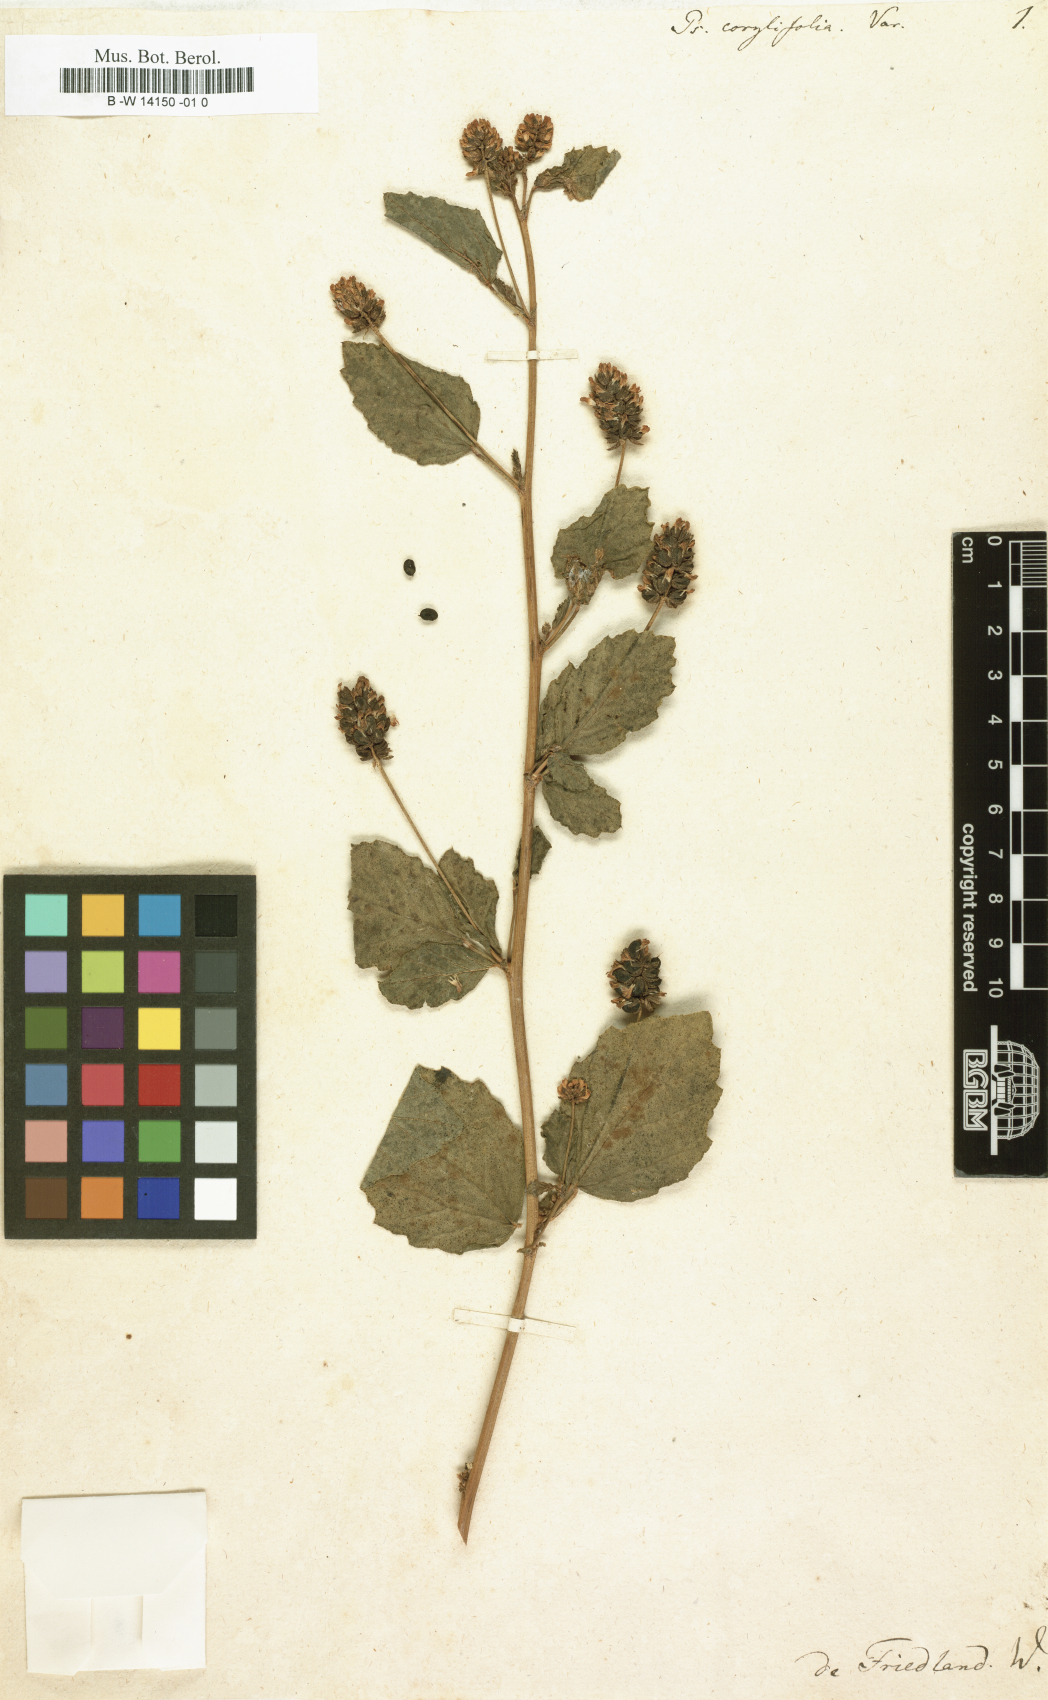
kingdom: Plantae
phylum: Tracheophyta
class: Magnoliopsida
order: Fabales
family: Fabaceae
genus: Cullen
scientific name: Cullen corylifolium
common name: Malaysian scurfpea
